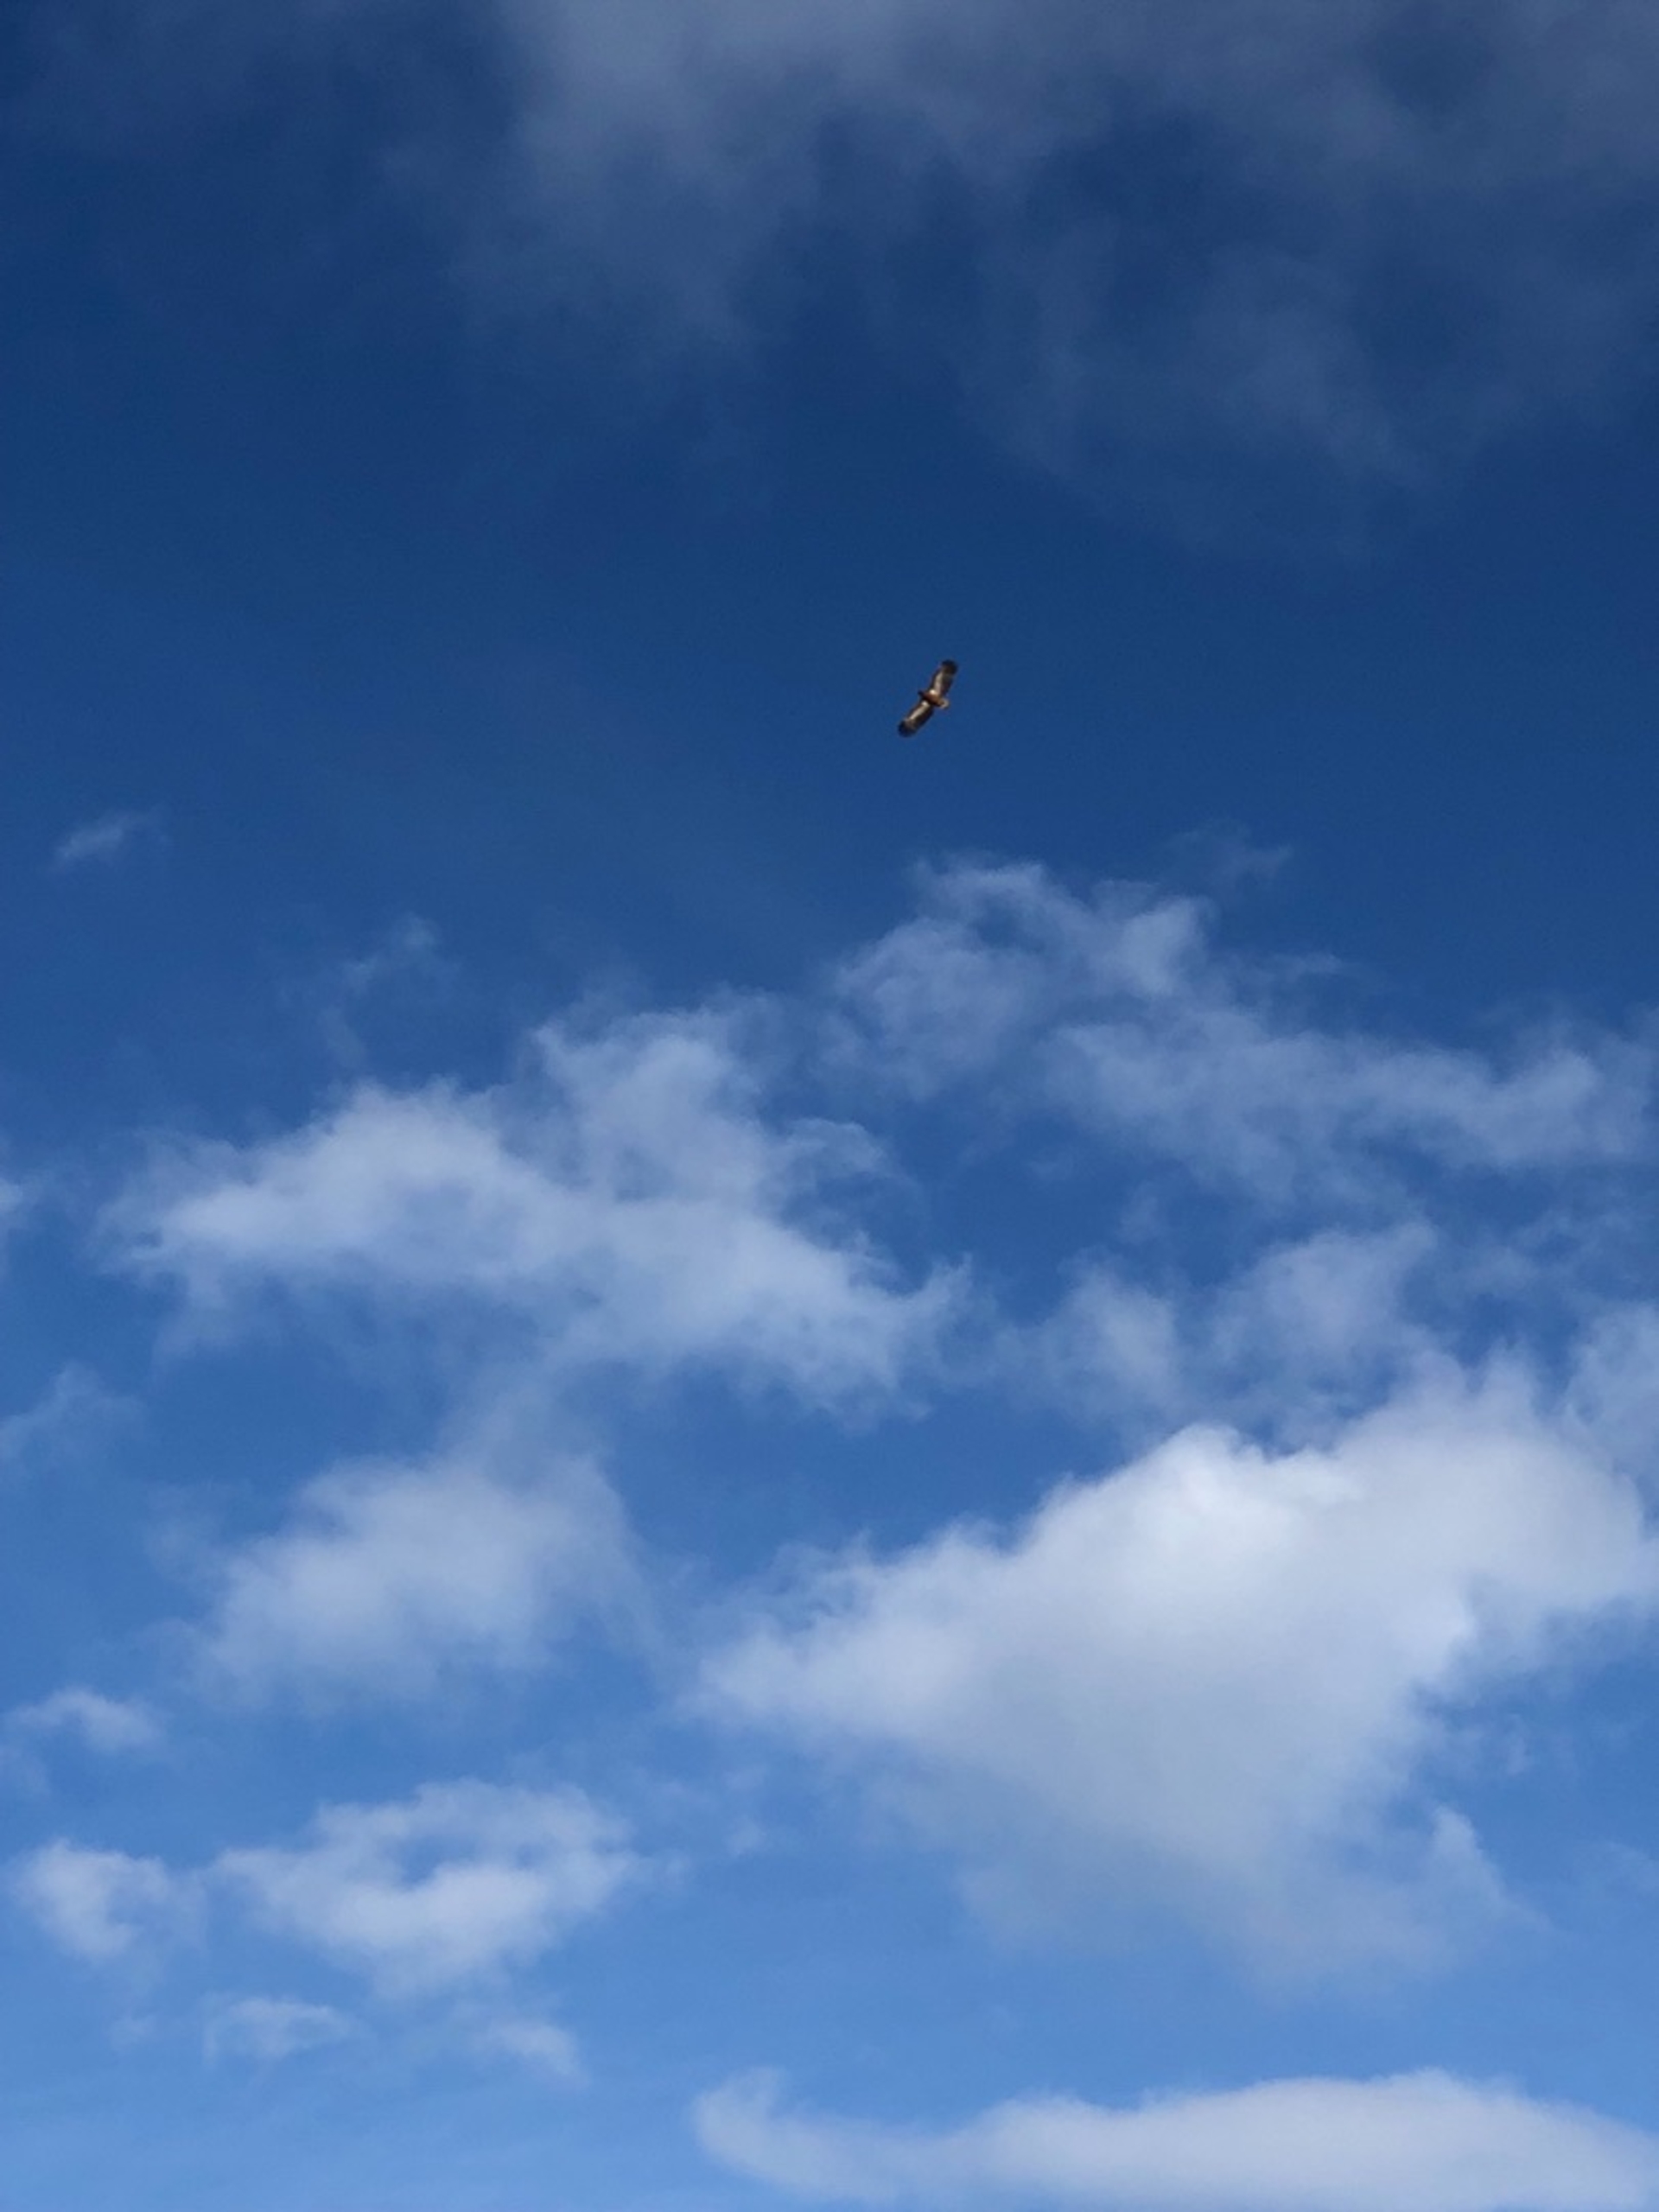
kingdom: Animalia
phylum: Chordata
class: Aves
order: Accipitriformes
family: Accipitridae
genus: Haliaeetus
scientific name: Haliaeetus albicilla
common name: Havørn
